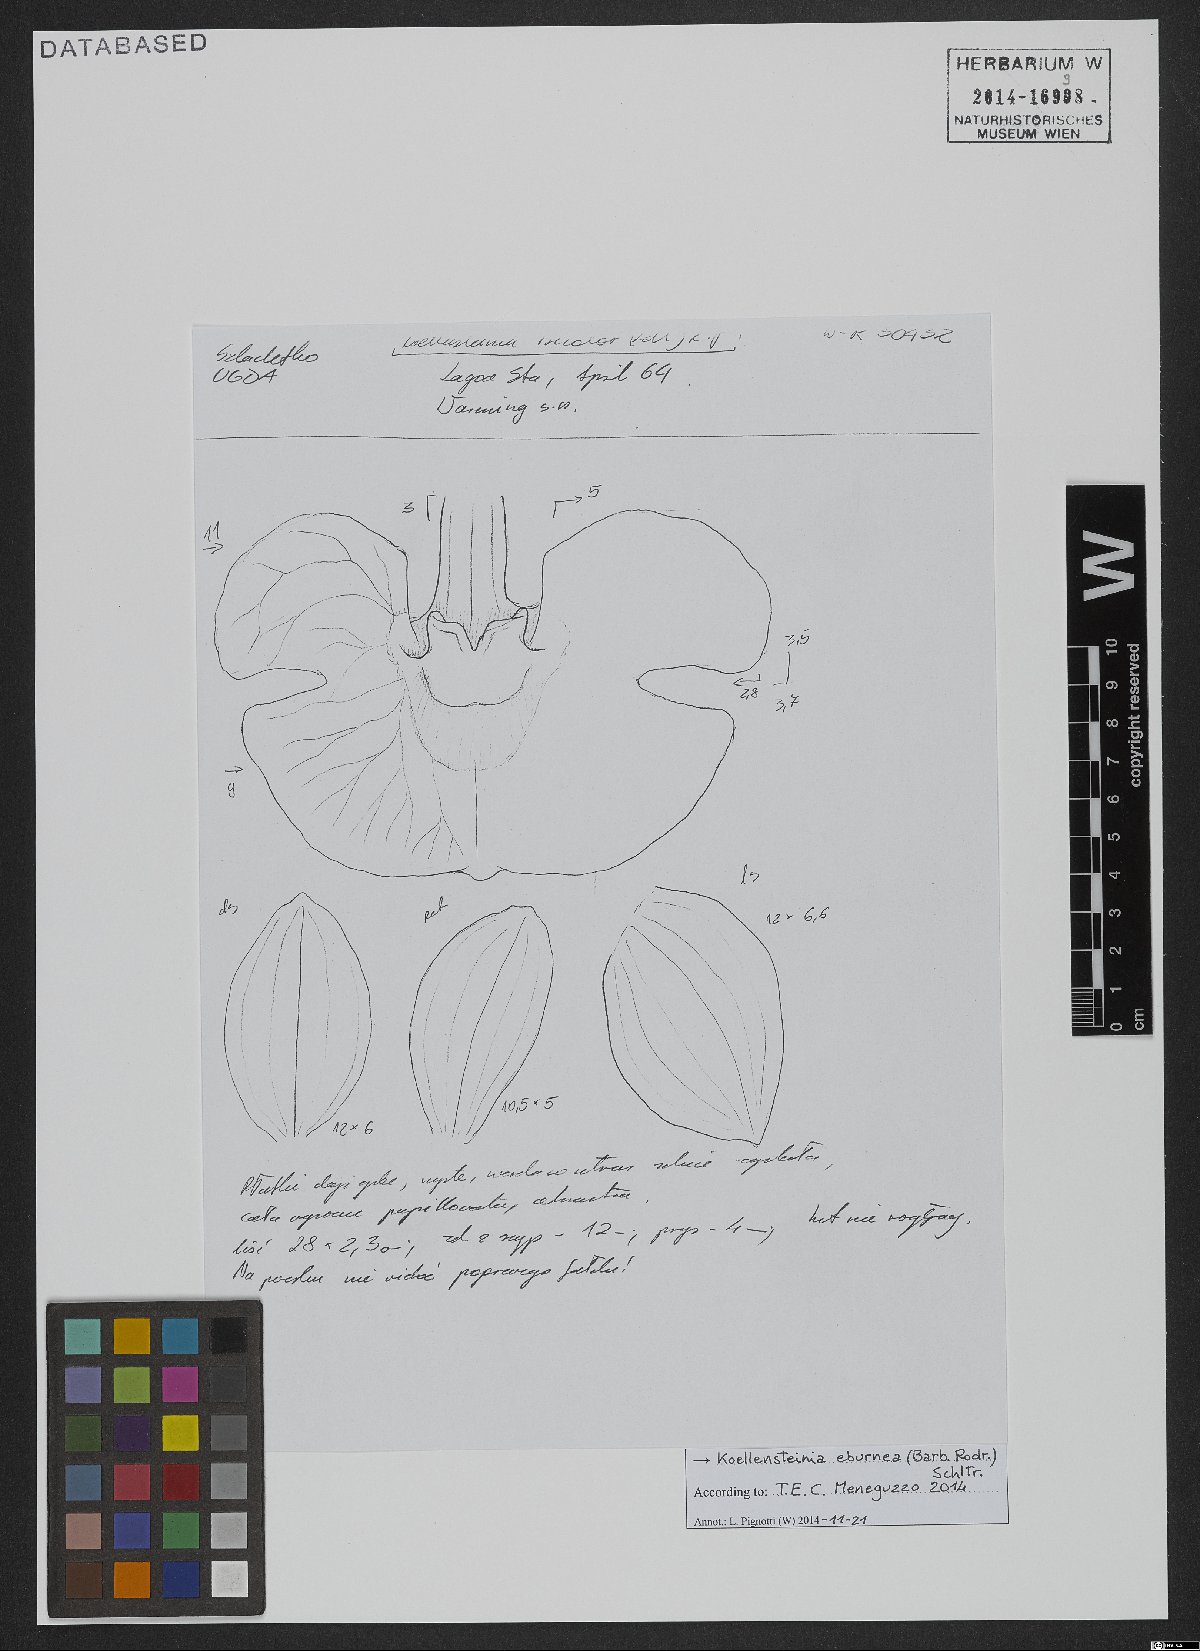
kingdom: Plantae
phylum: Tracheophyta
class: Liliopsida
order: Asparagales
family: Orchidaceae
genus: Koellensteinia
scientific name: Koellensteinia eburnea
